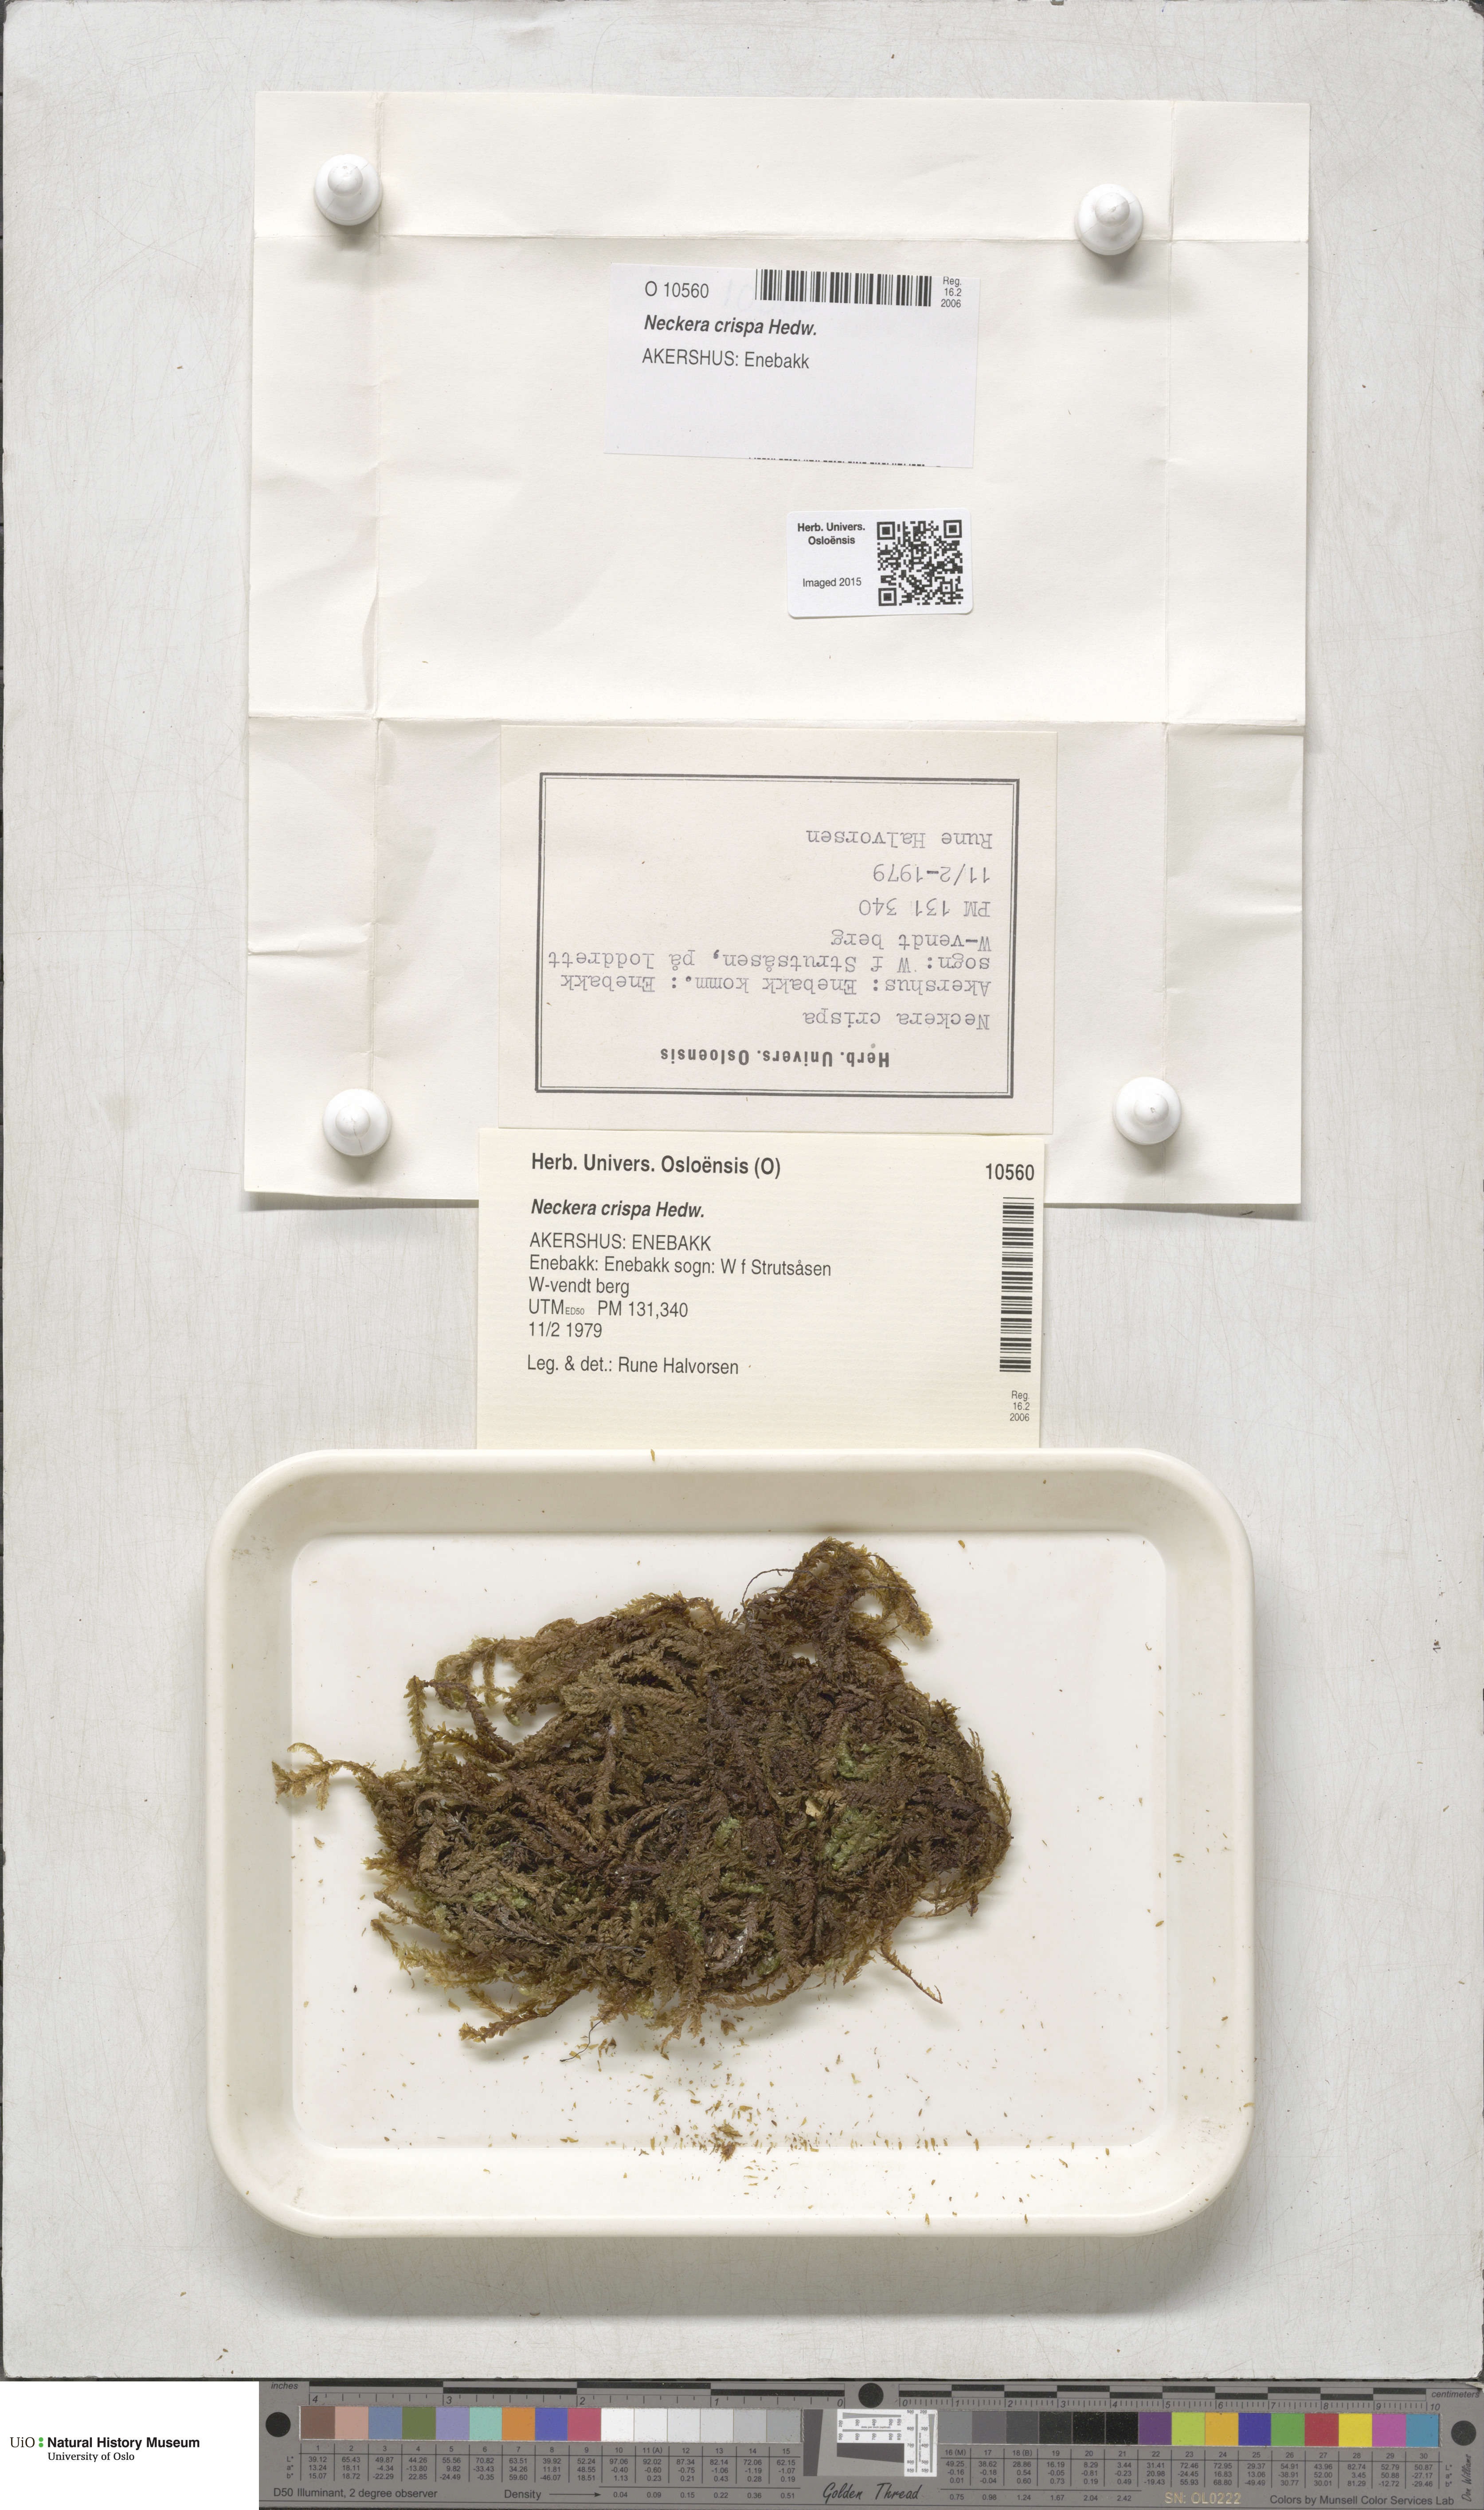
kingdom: Plantae
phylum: Bryophyta
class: Bryopsida
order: Hypnales
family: Neckeraceae
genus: Exsertotheca
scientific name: Exsertotheca crispa
